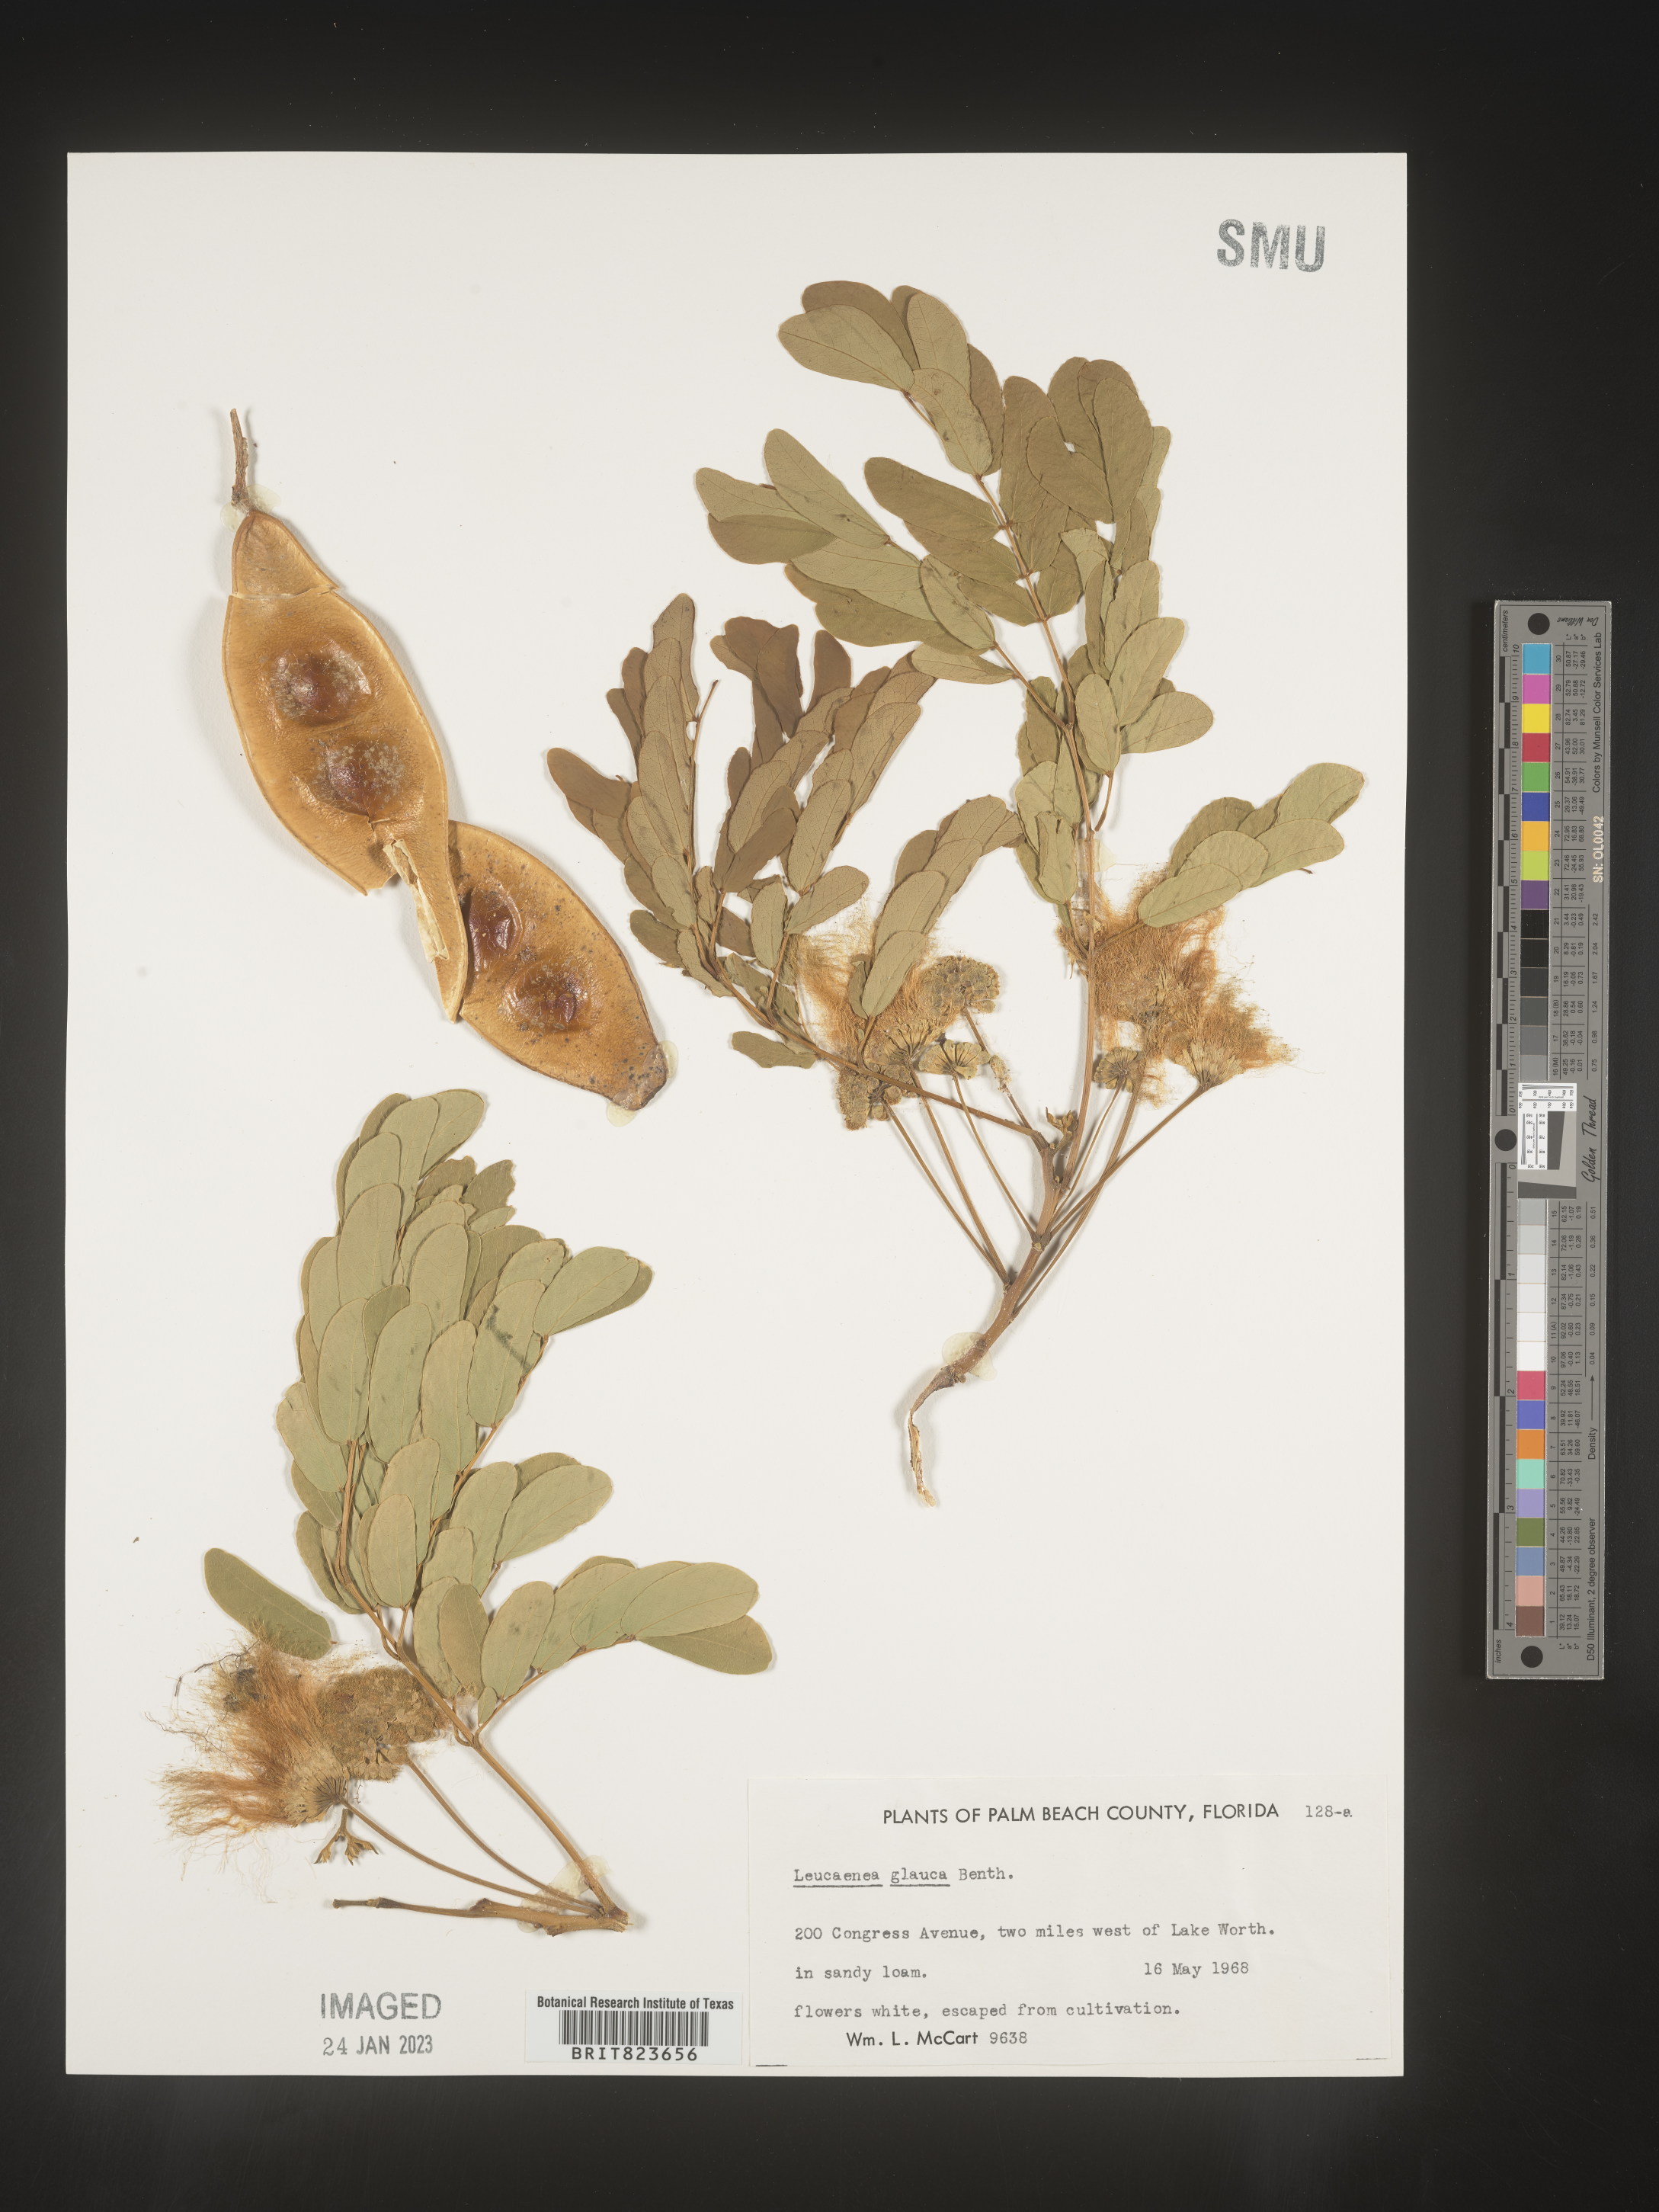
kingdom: Plantae
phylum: Tracheophyta
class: Magnoliopsida
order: Fabales
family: Fabaceae
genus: Leucaena
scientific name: Leucaena
